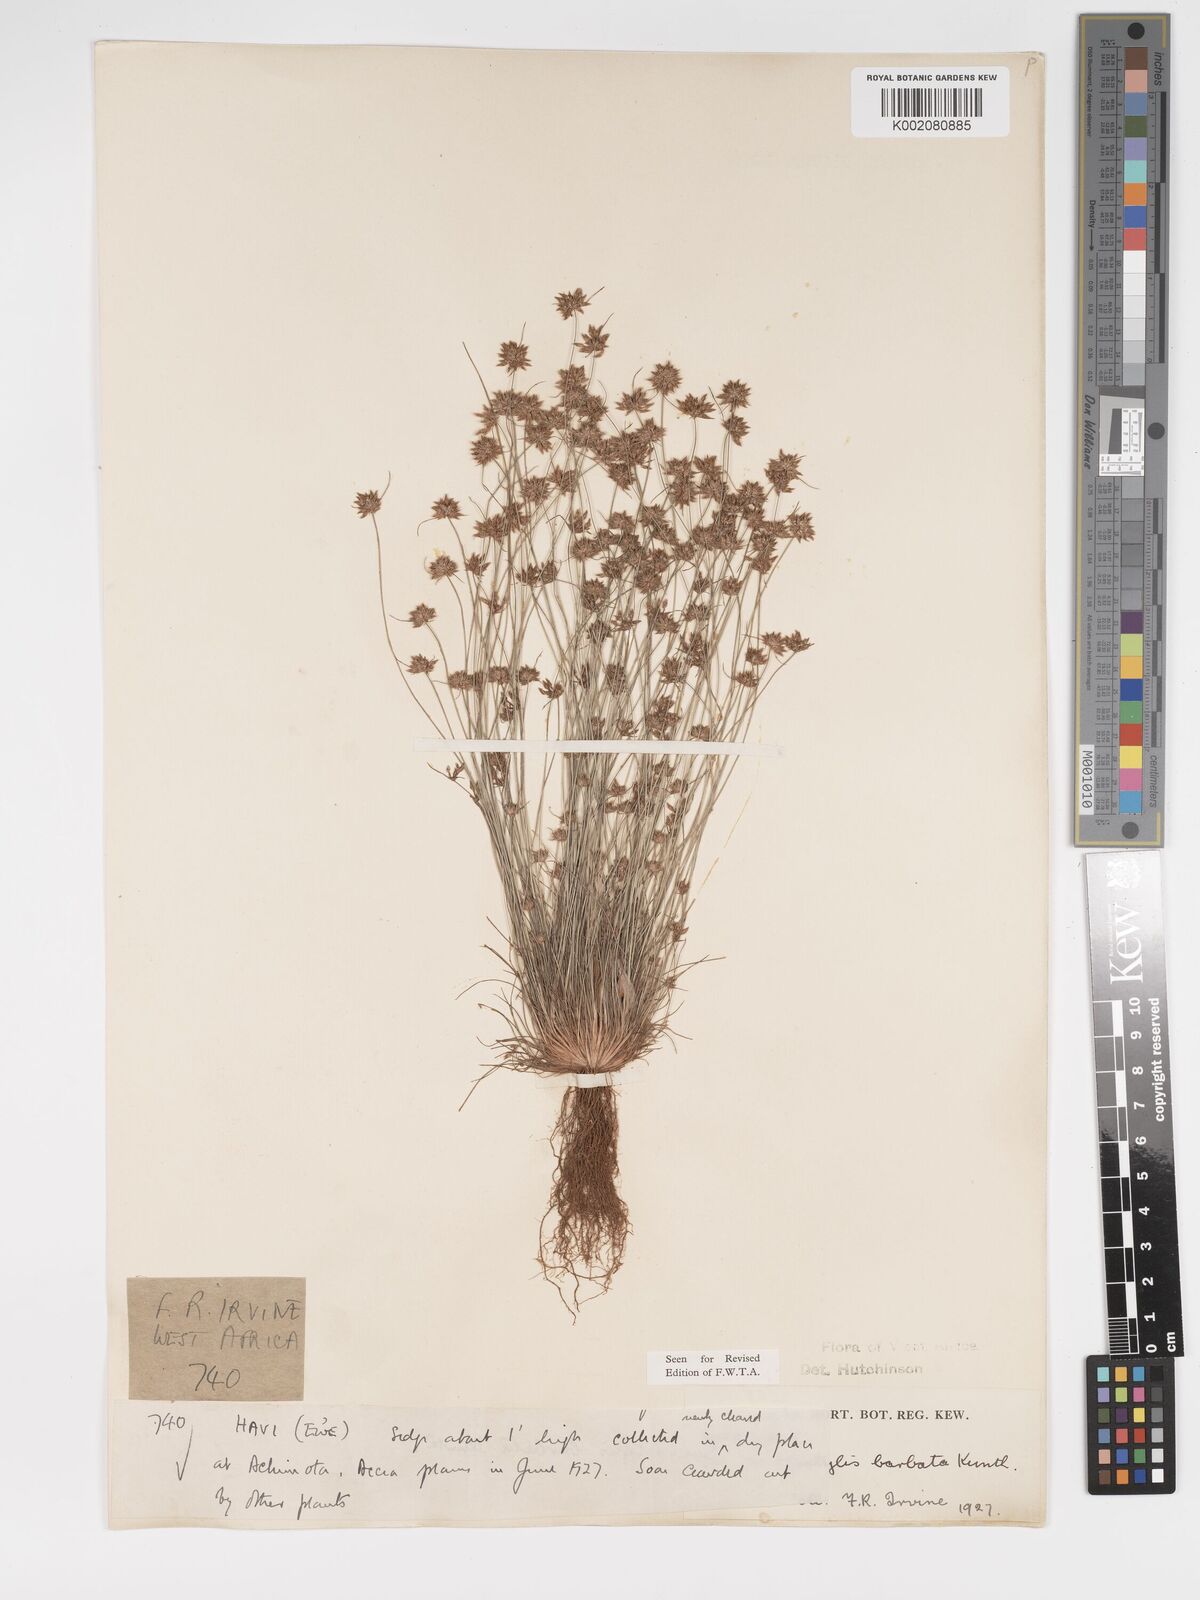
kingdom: Plantae
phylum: Tracheophyta
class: Liliopsida
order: Poales
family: Cyperaceae
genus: Bulbostylis
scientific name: Bulbostylis barbata
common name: Watergrass
